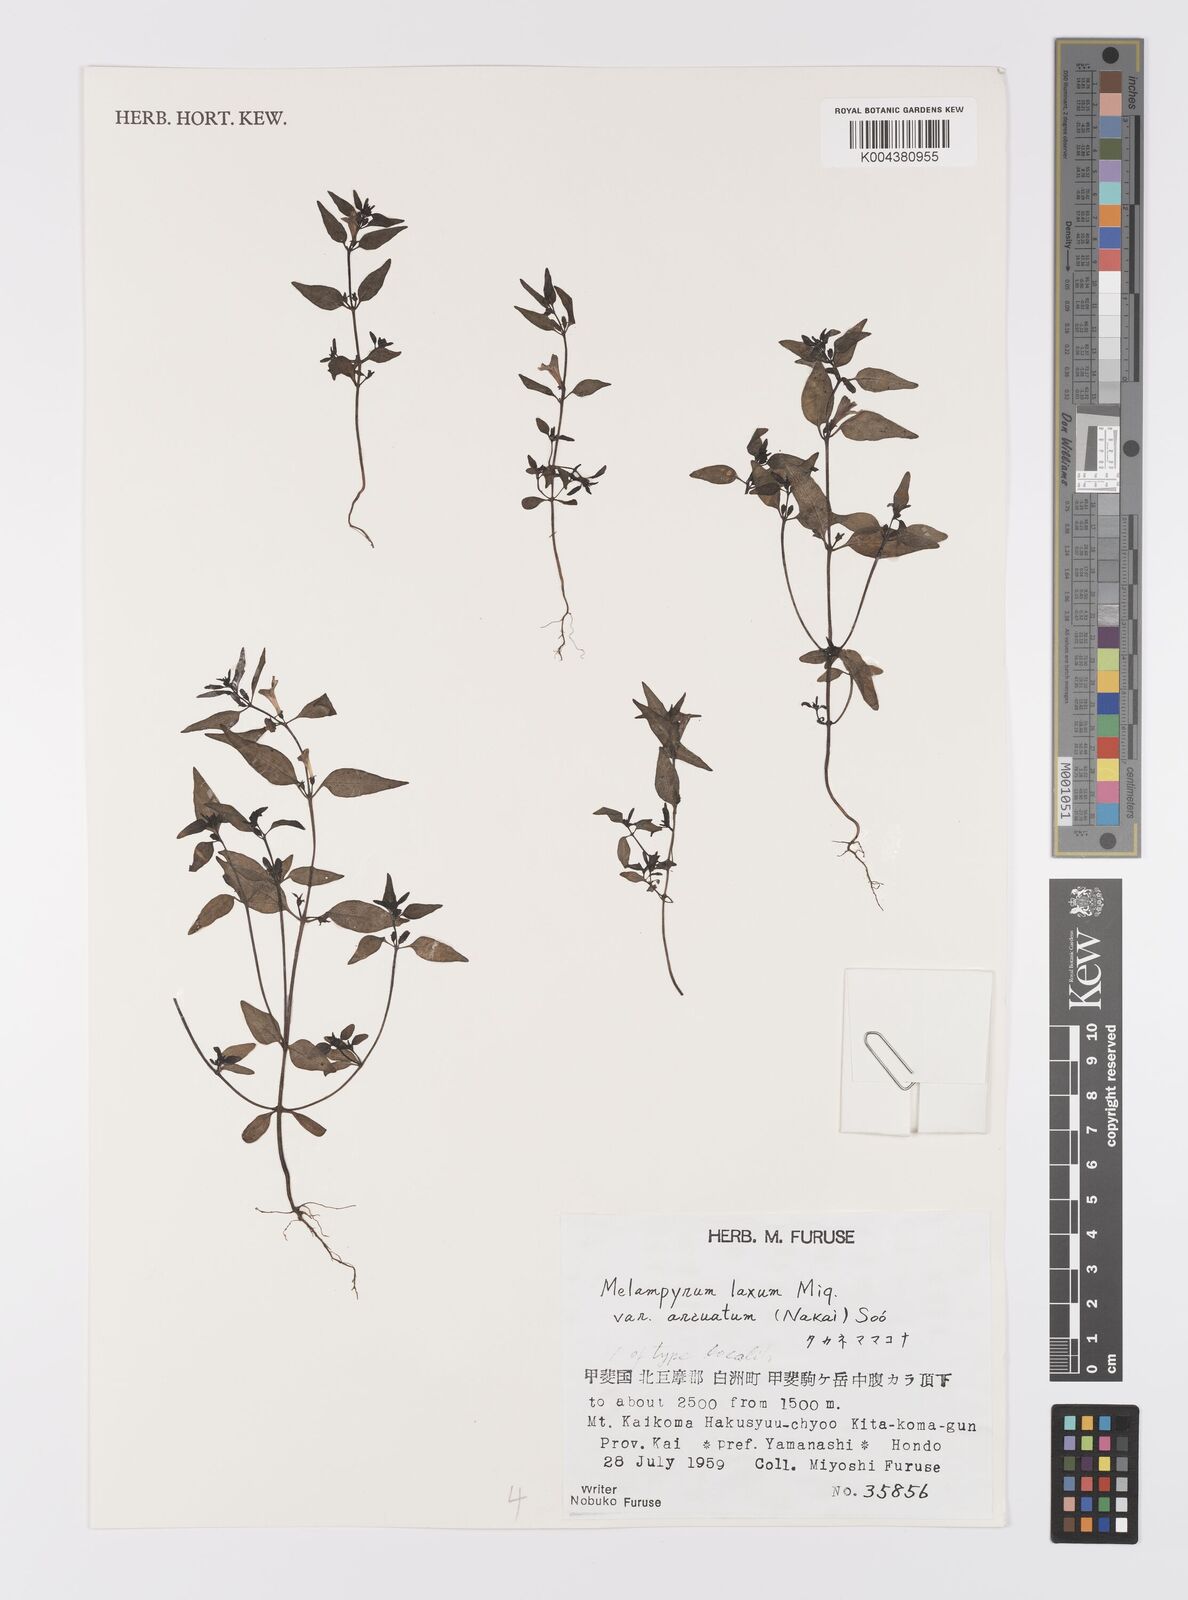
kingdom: Plantae
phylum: Tracheophyta
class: Magnoliopsida
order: Lamiales
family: Orobanchaceae
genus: Melampyrum
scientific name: Melampyrum laxum
